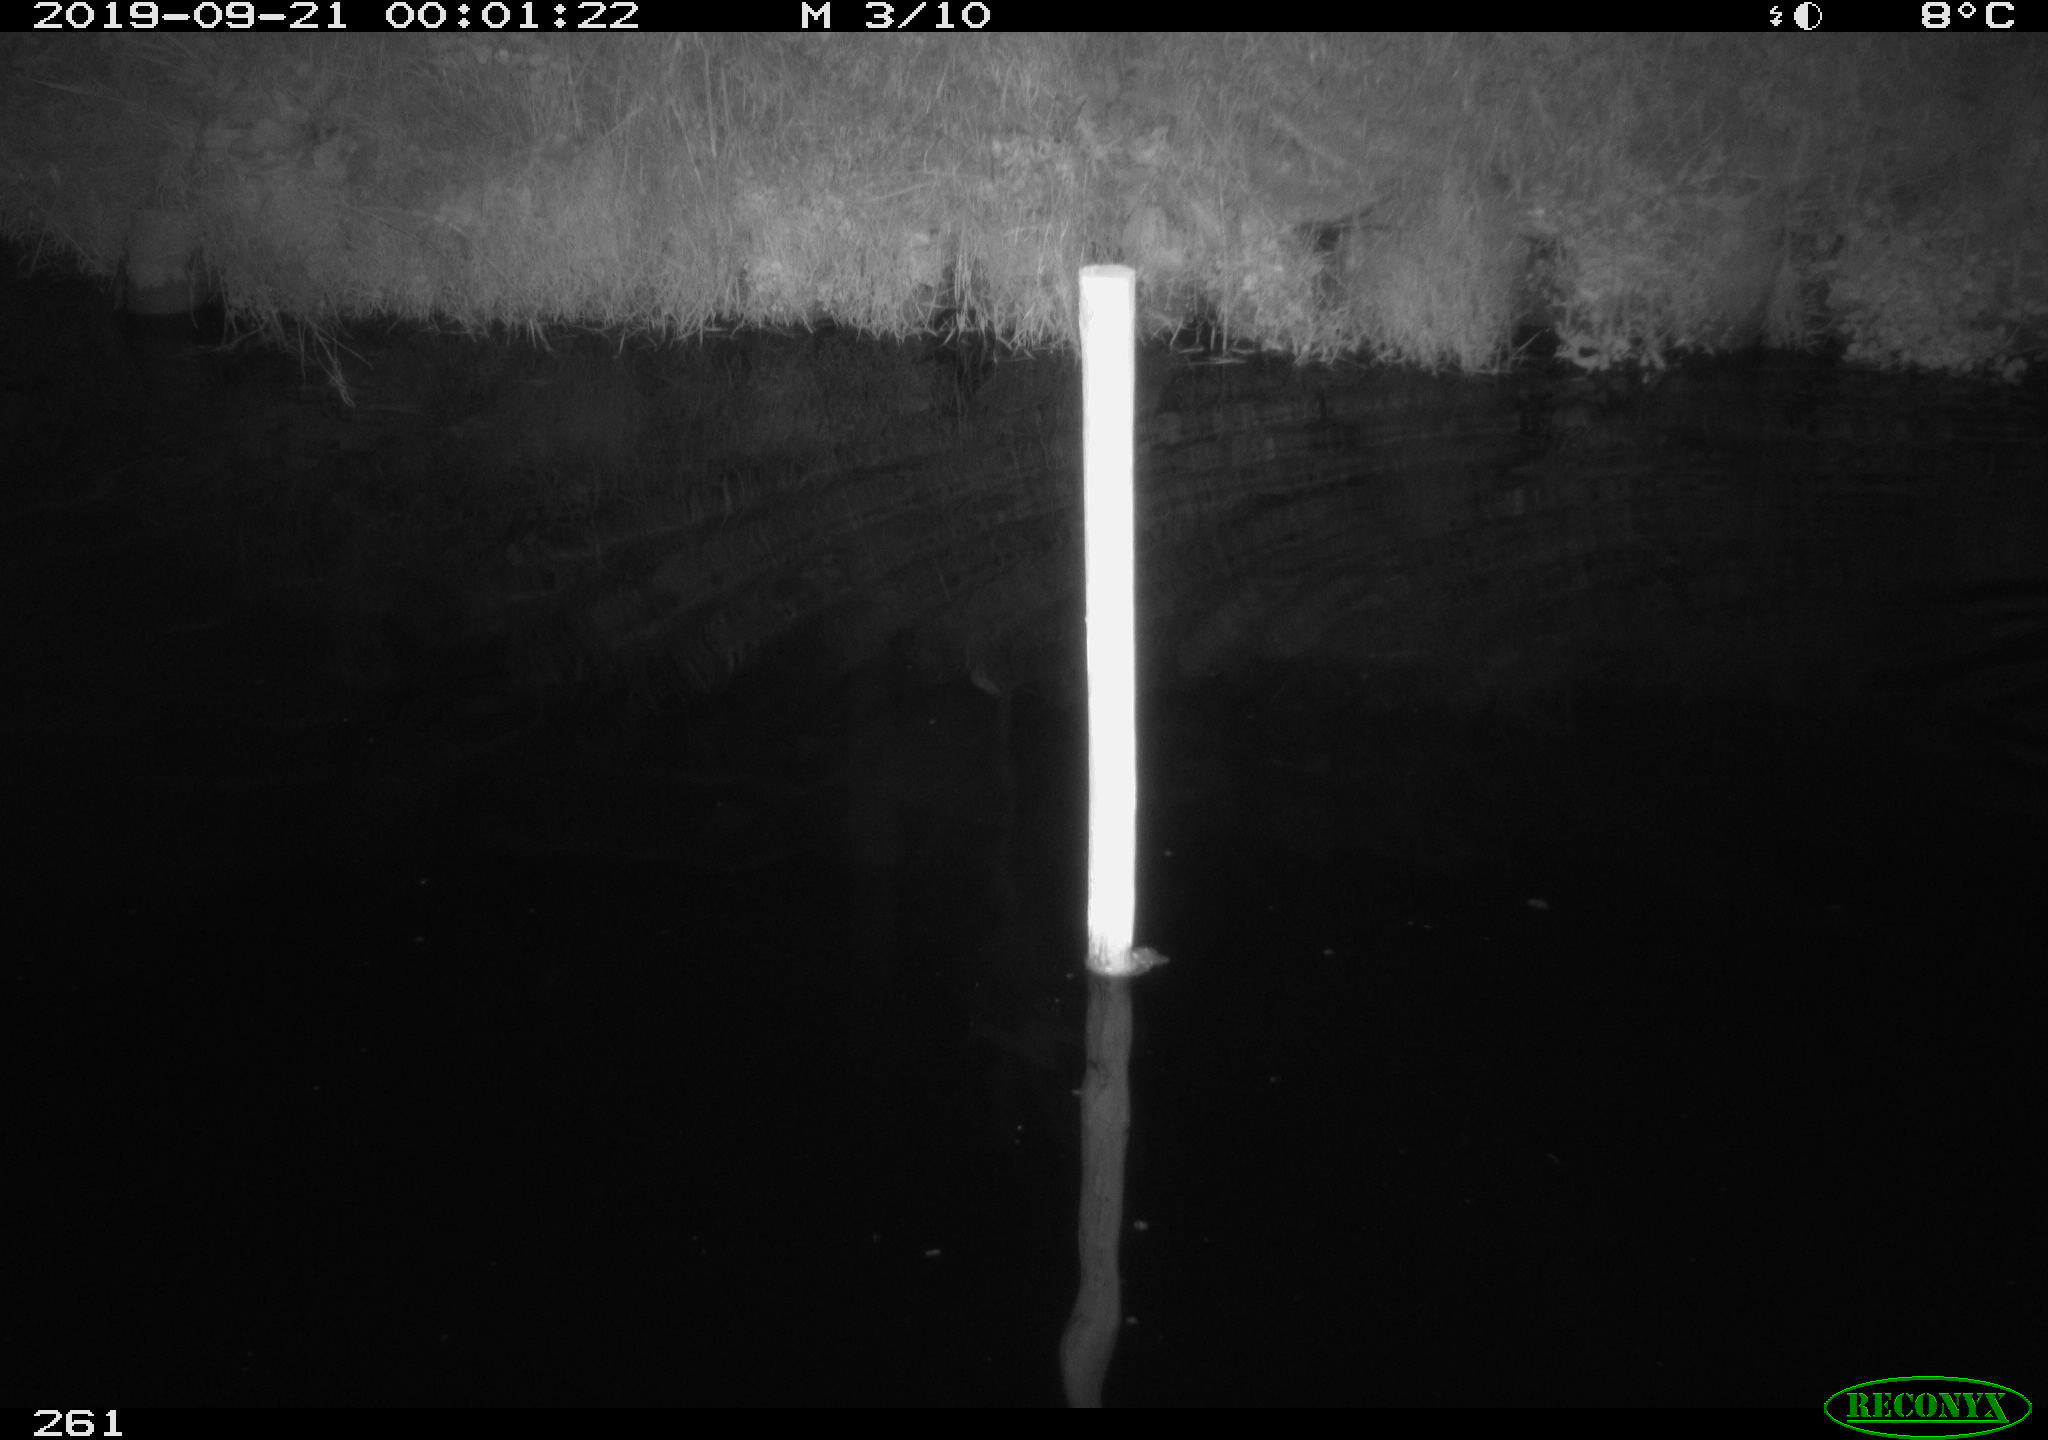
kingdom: Animalia
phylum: Chordata
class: Aves
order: Anseriformes
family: Anatidae
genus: Anas
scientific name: Anas platyrhynchos
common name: Mallard
